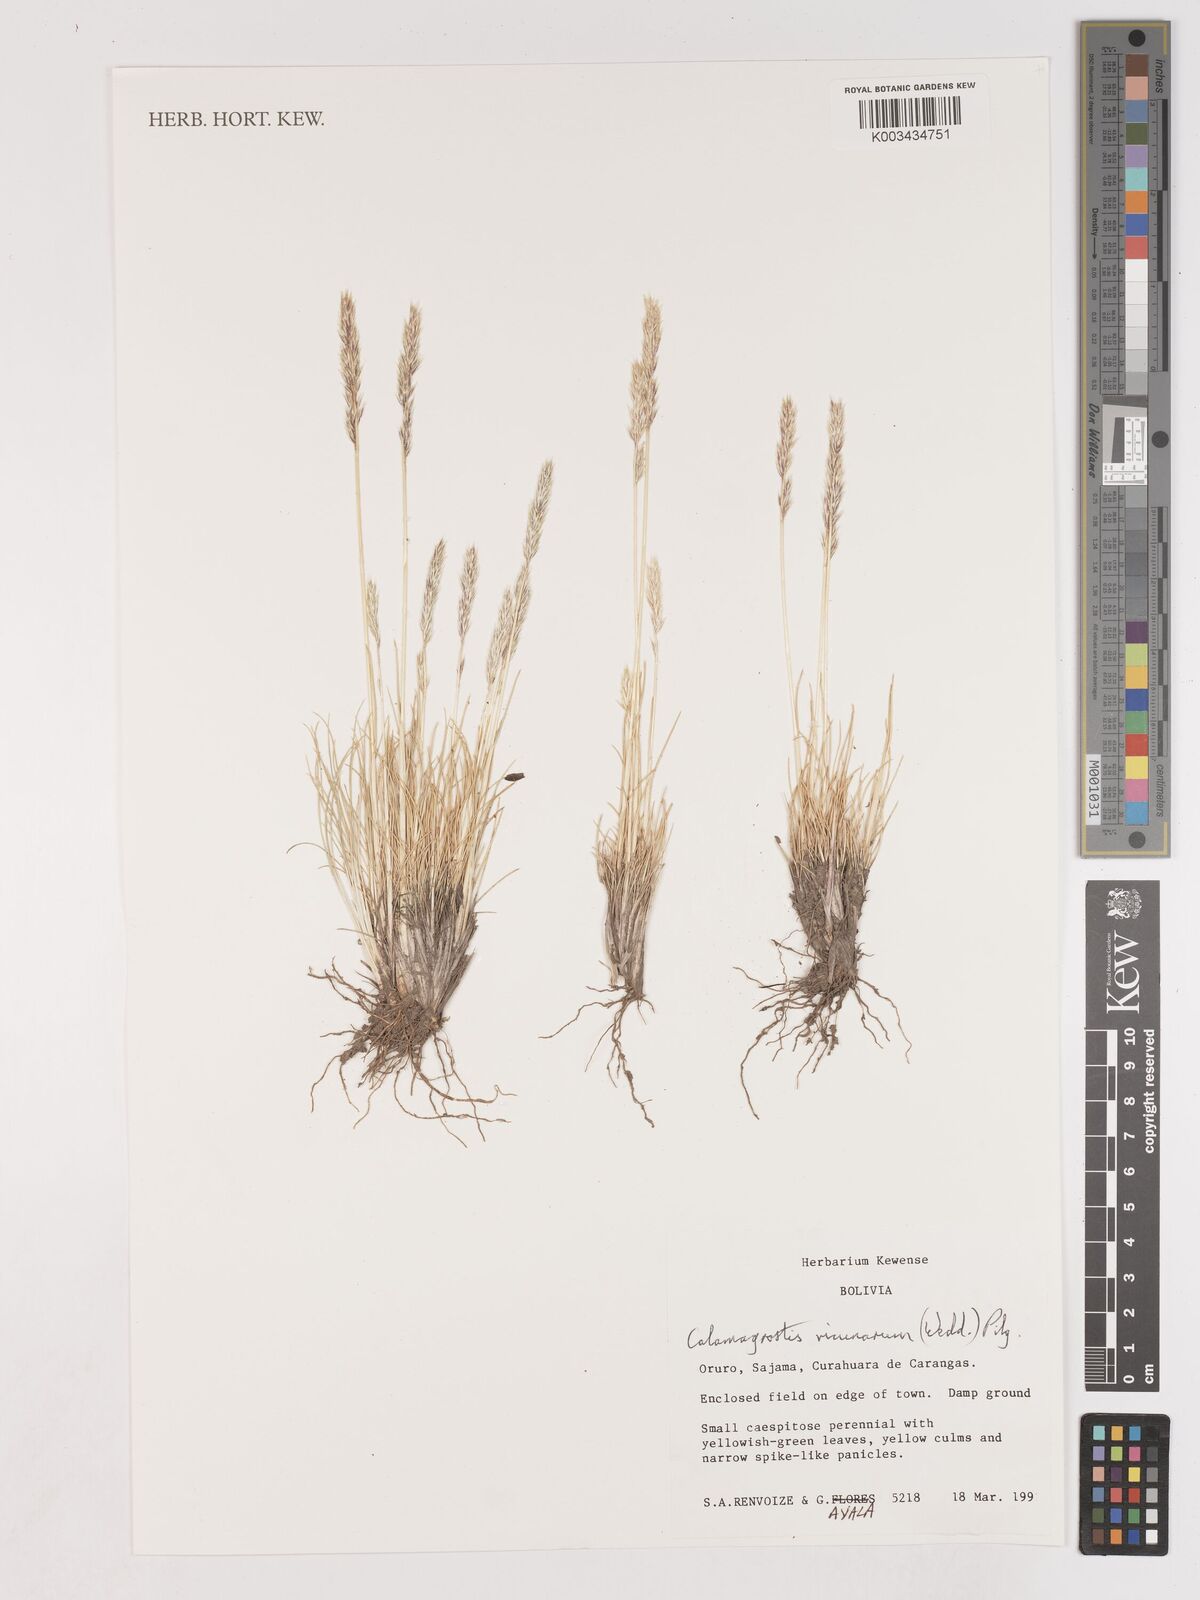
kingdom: Plantae
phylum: Tracheophyta
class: Liliopsida
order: Poales
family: Poaceae
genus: Cinnagrostis
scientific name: Cinnagrostis vicunarum
